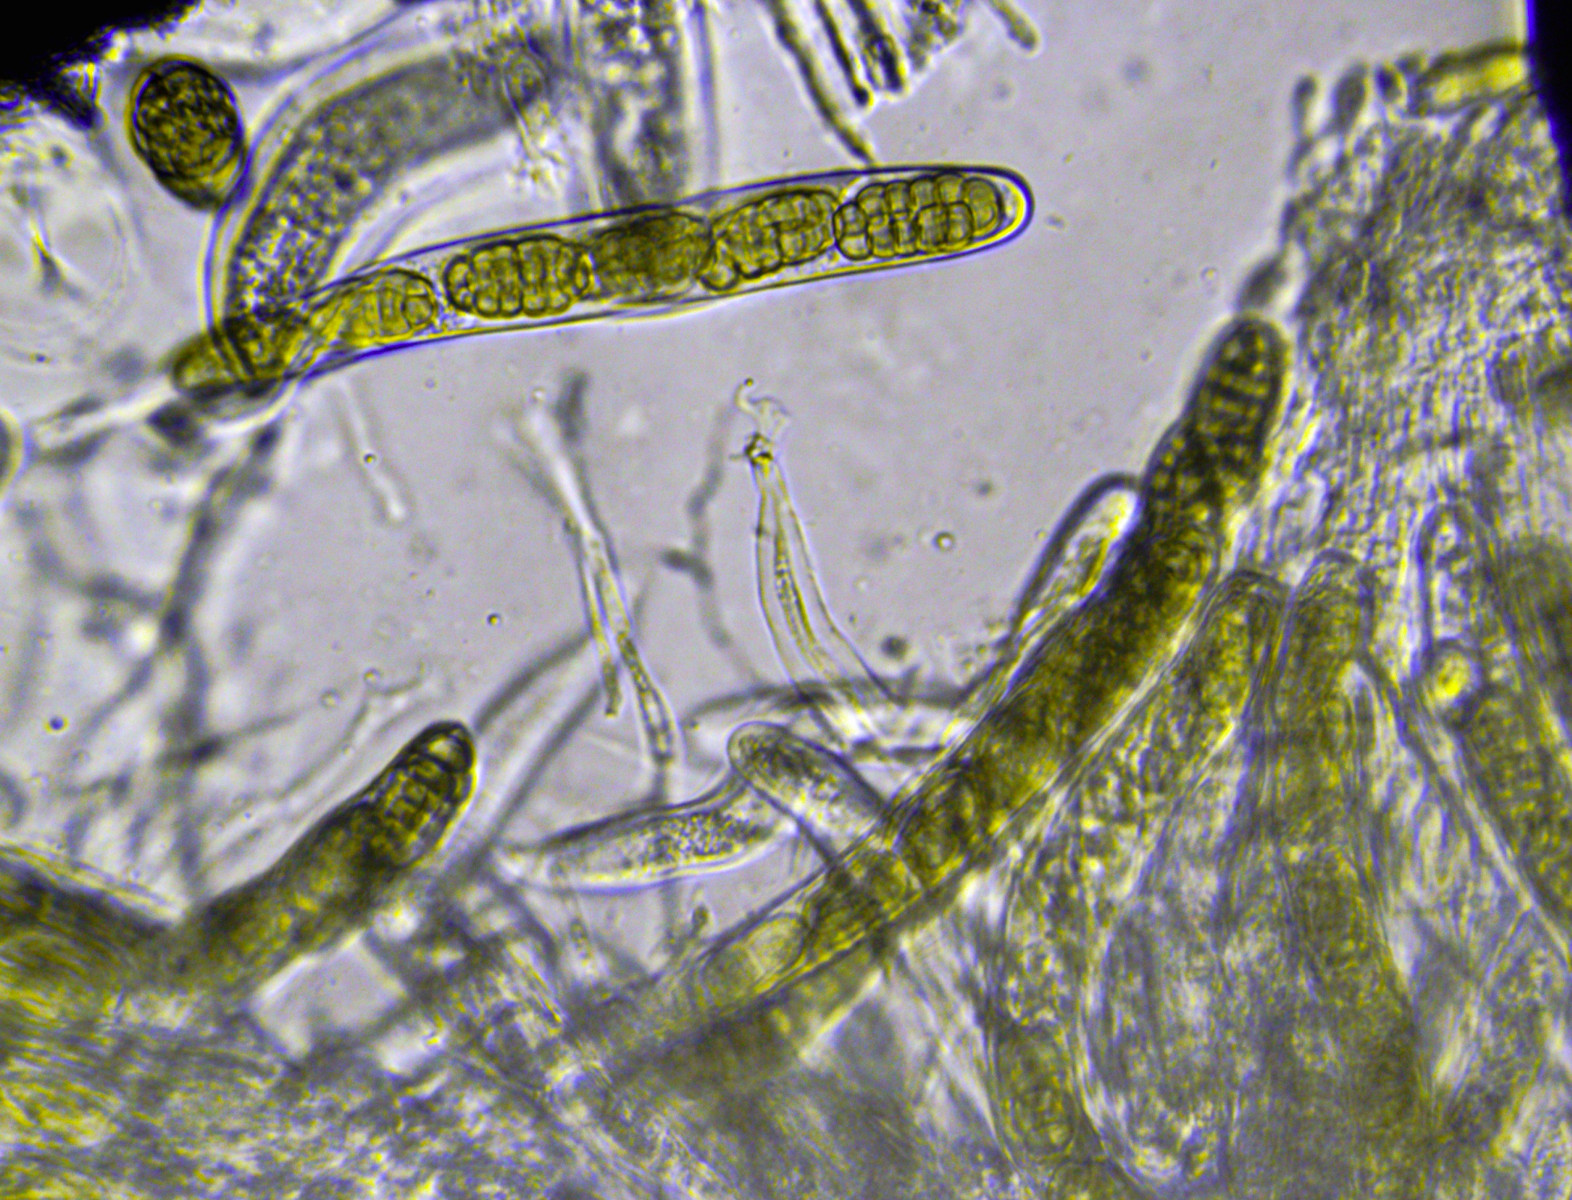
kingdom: Fungi
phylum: Ascomycota
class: Dothideomycetes
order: Pleosporales
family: Pleosporaceae
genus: Stemphylium
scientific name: Stemphylium vesicarium
